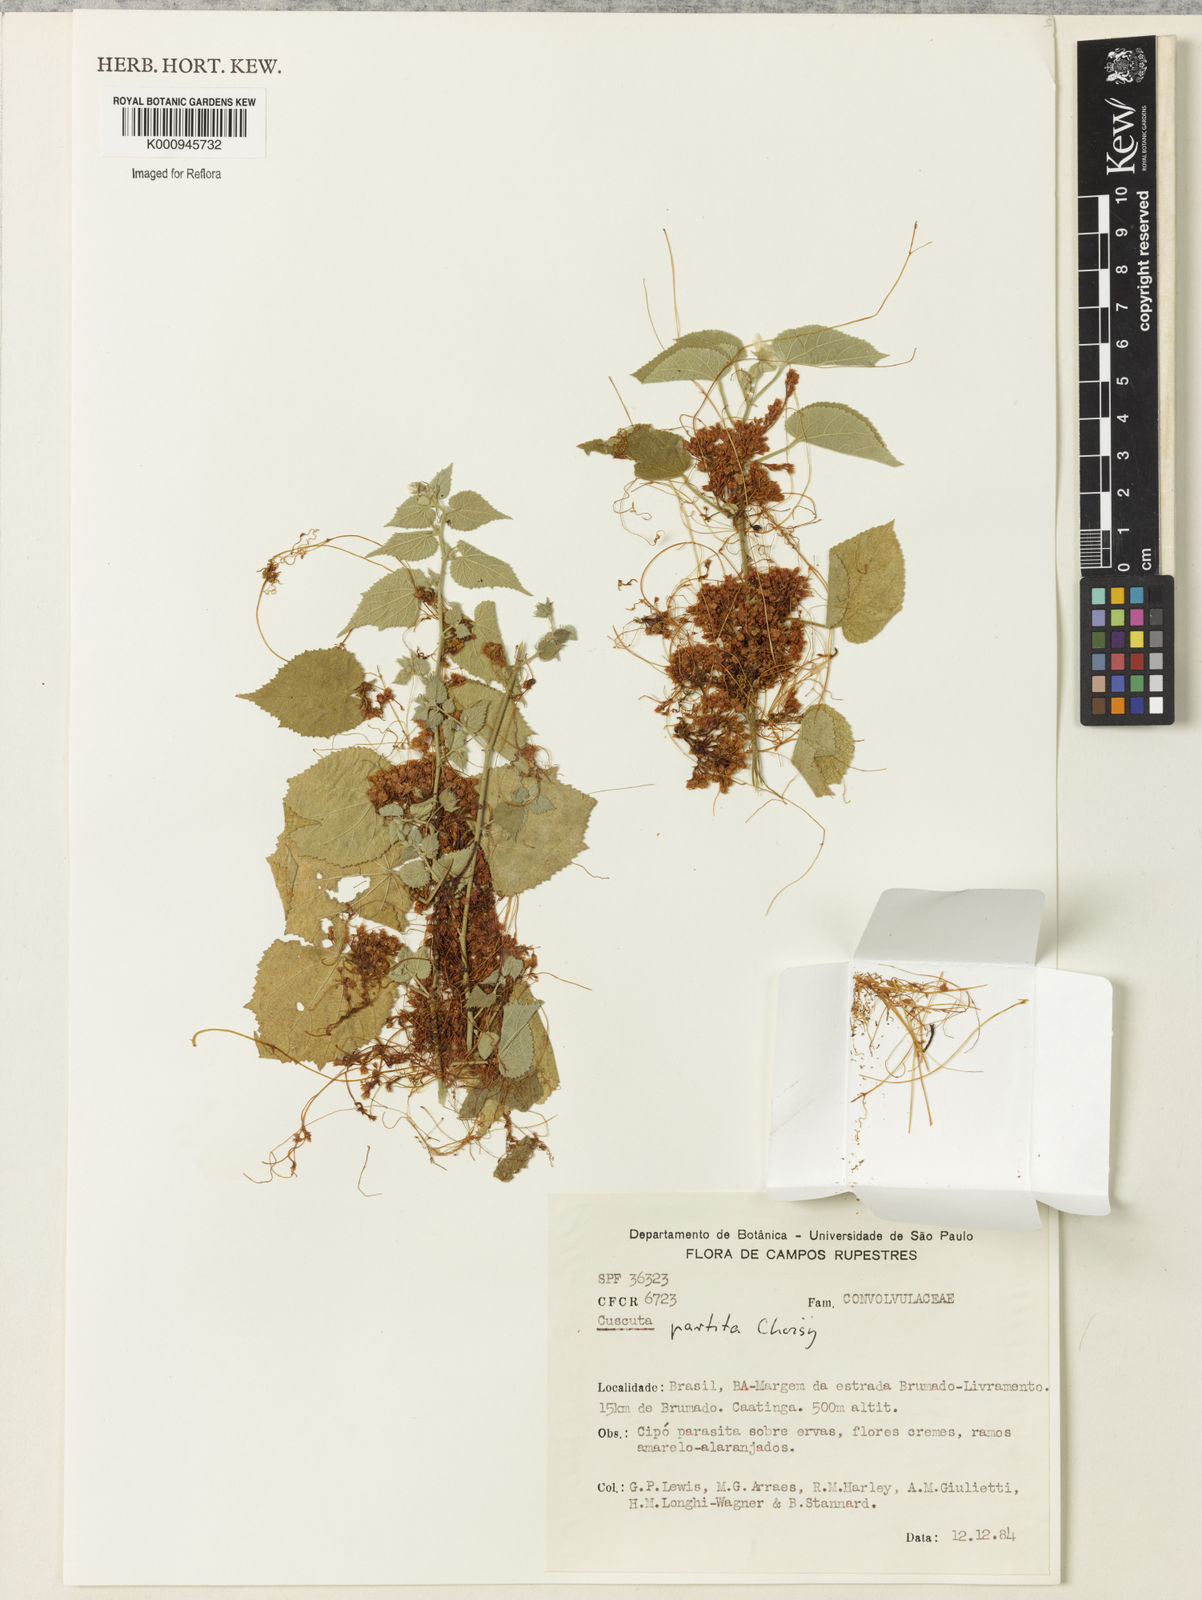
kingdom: Plantae
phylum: Tracheophyta
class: Magnoliopsida
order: Solanales
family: Convolvulaceae
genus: Cuscuta
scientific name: Cuscuta partita
